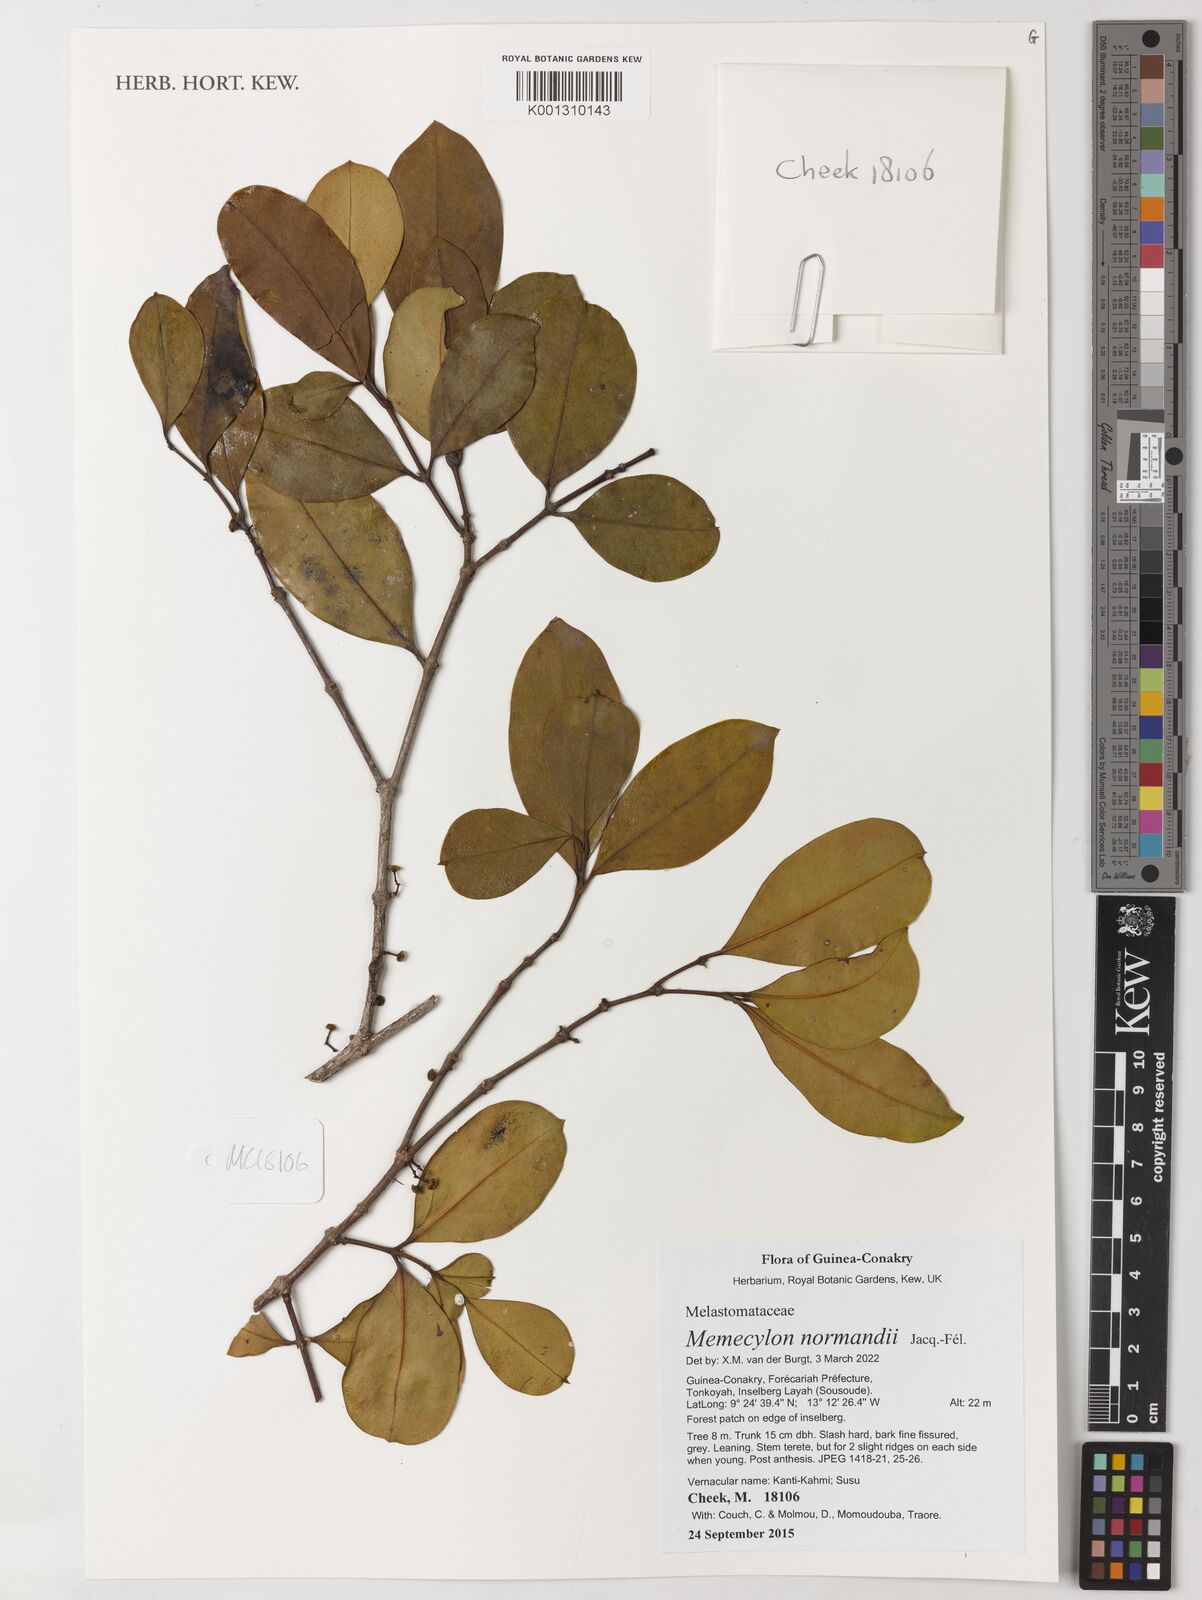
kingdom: Plantae
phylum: Tracheophyta
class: Magnoliopsida
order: Myrtales
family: Melastomataceae
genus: Memecylon
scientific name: Memecylon normandii
